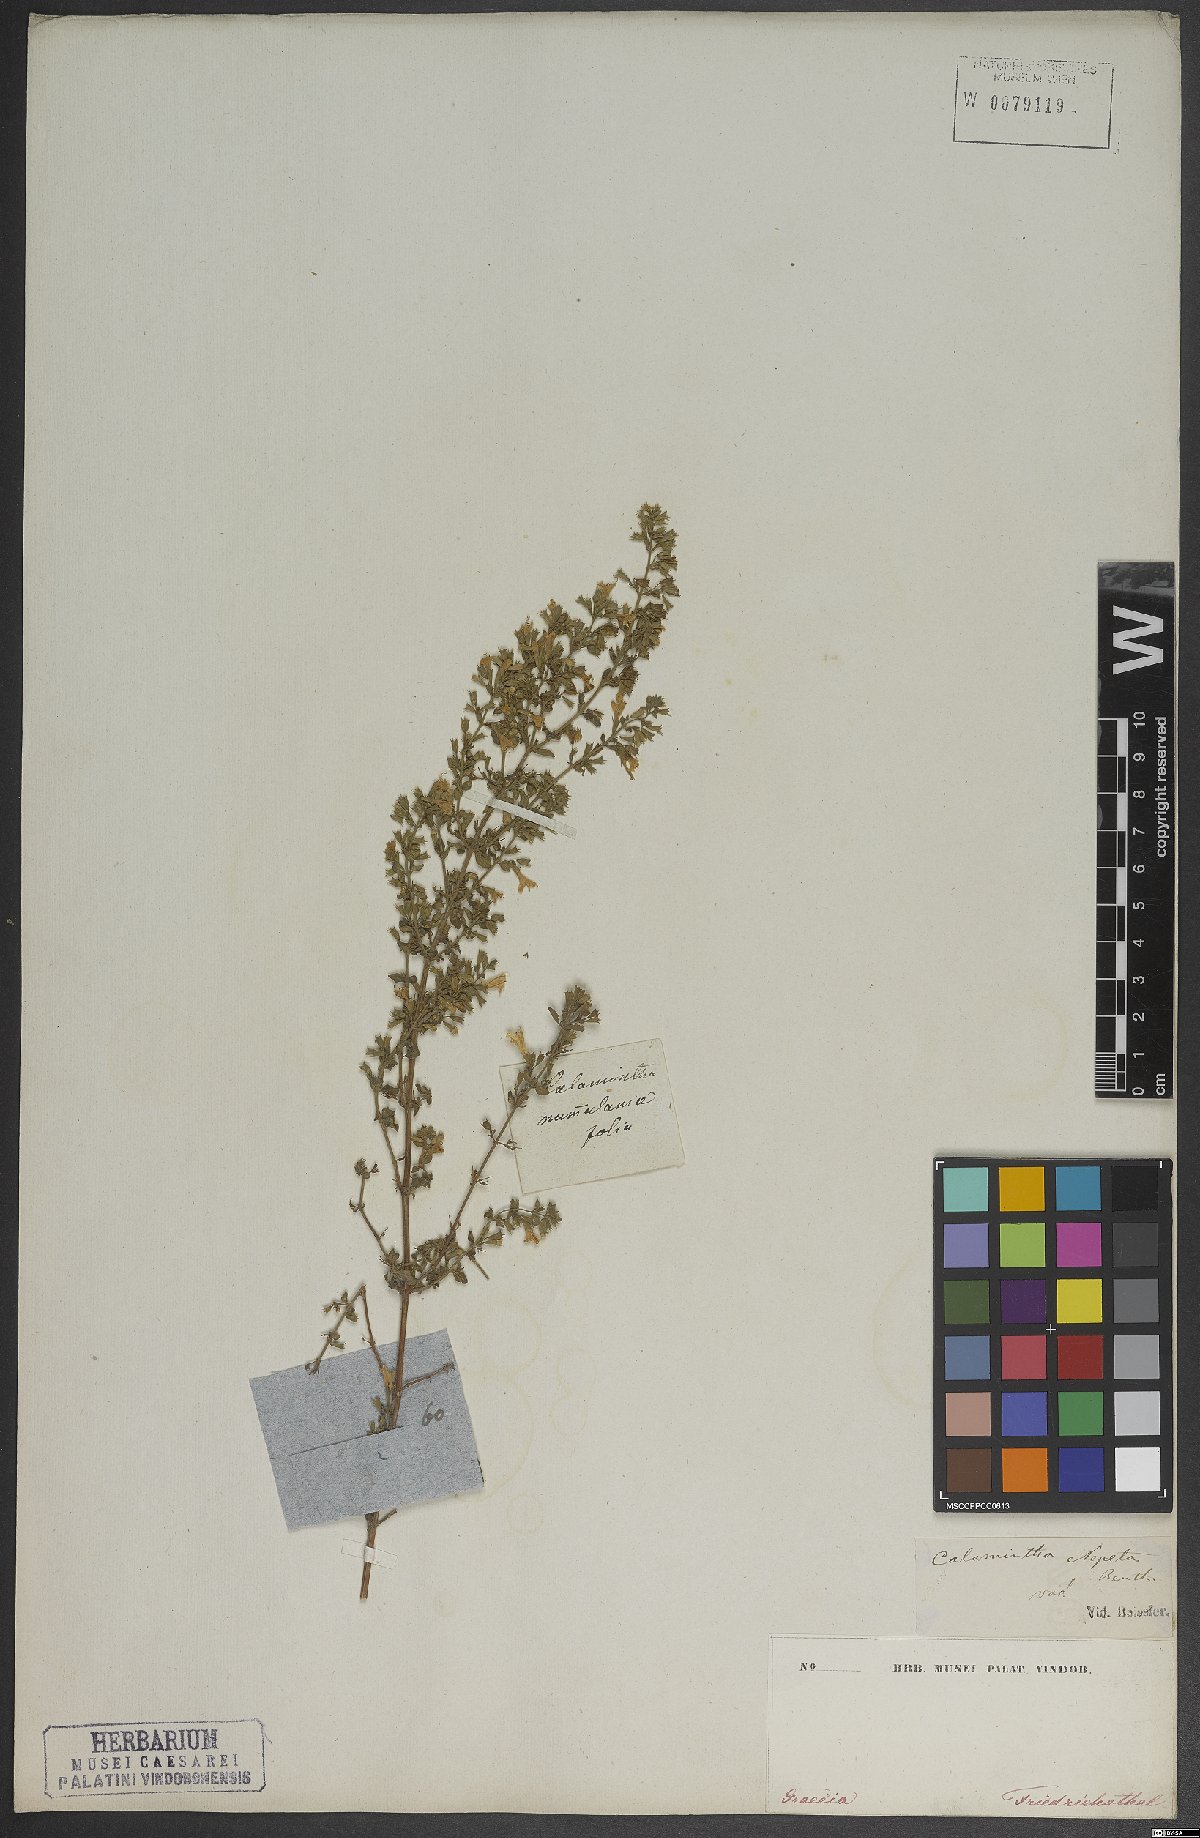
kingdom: Plantae
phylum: Tracheophyta
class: Magnoliopsida
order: Lamiales
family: Lamiaceae
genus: Clinopodium
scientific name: Clinopodium nepeta
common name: Lesser calamint
